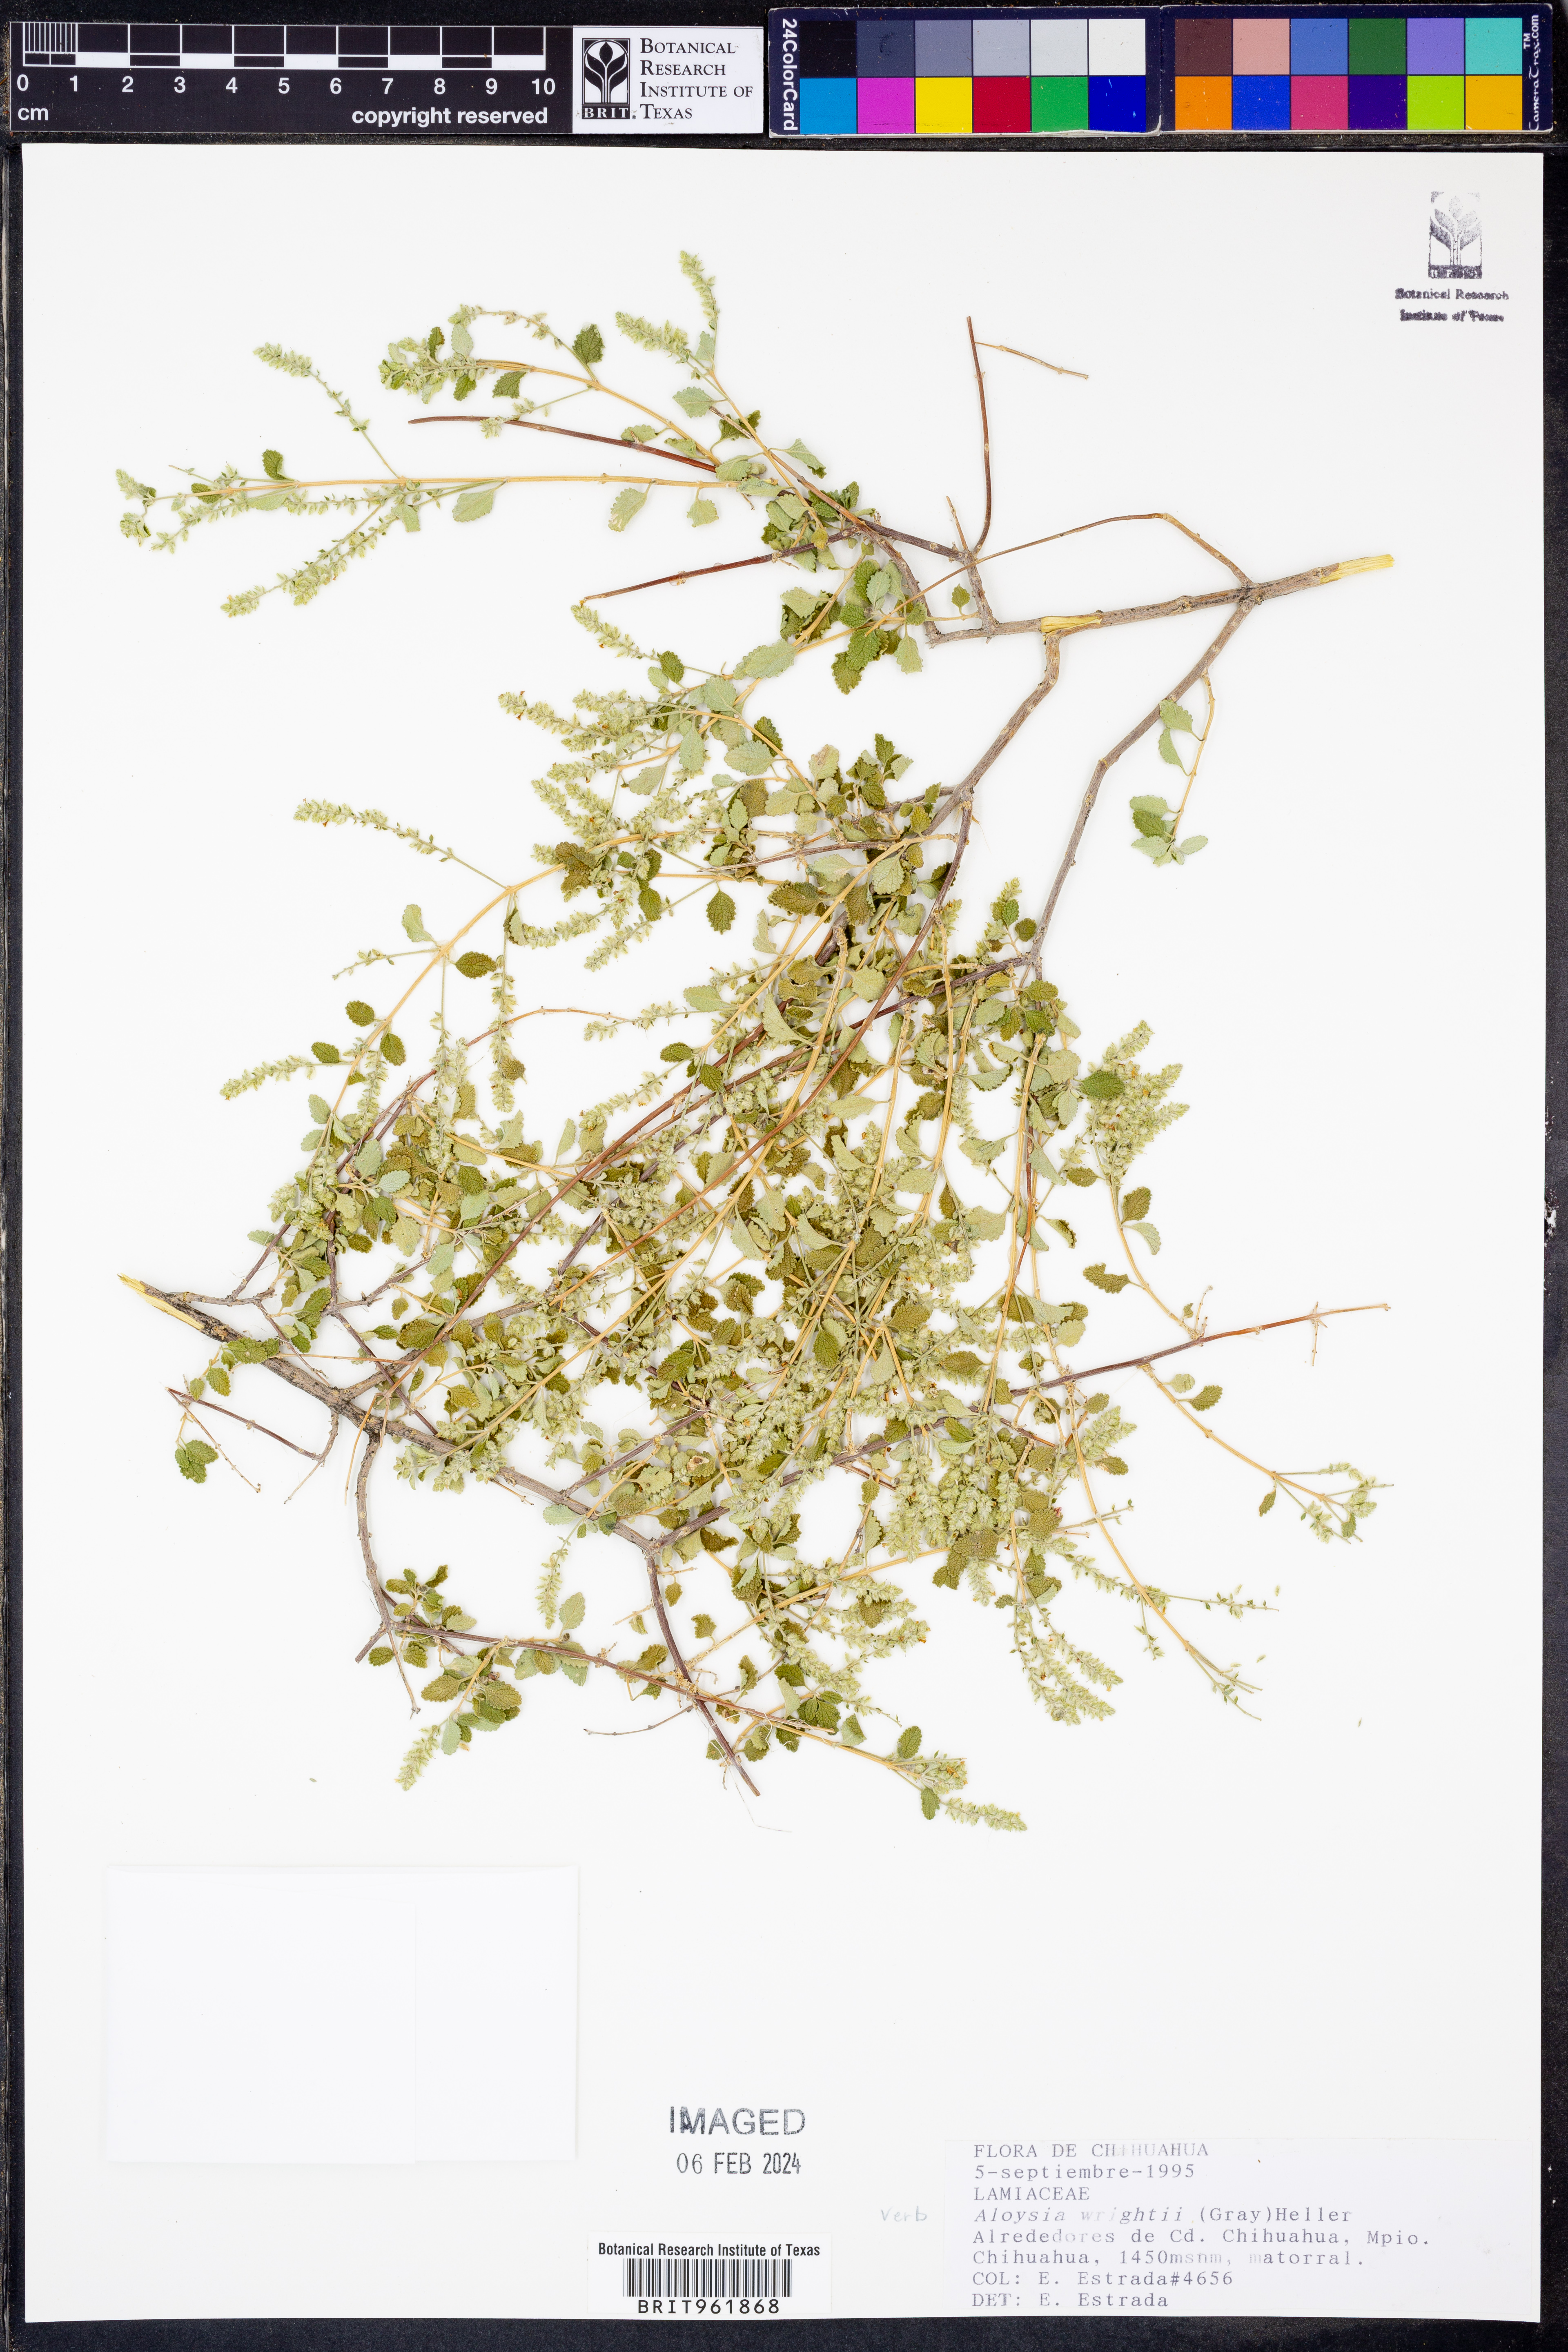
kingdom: Plantae
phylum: Tracheophyta
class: Magnoliopsida
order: Lamiales
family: Verbenaceae
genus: Aloysia
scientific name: Aloysia wrightii
